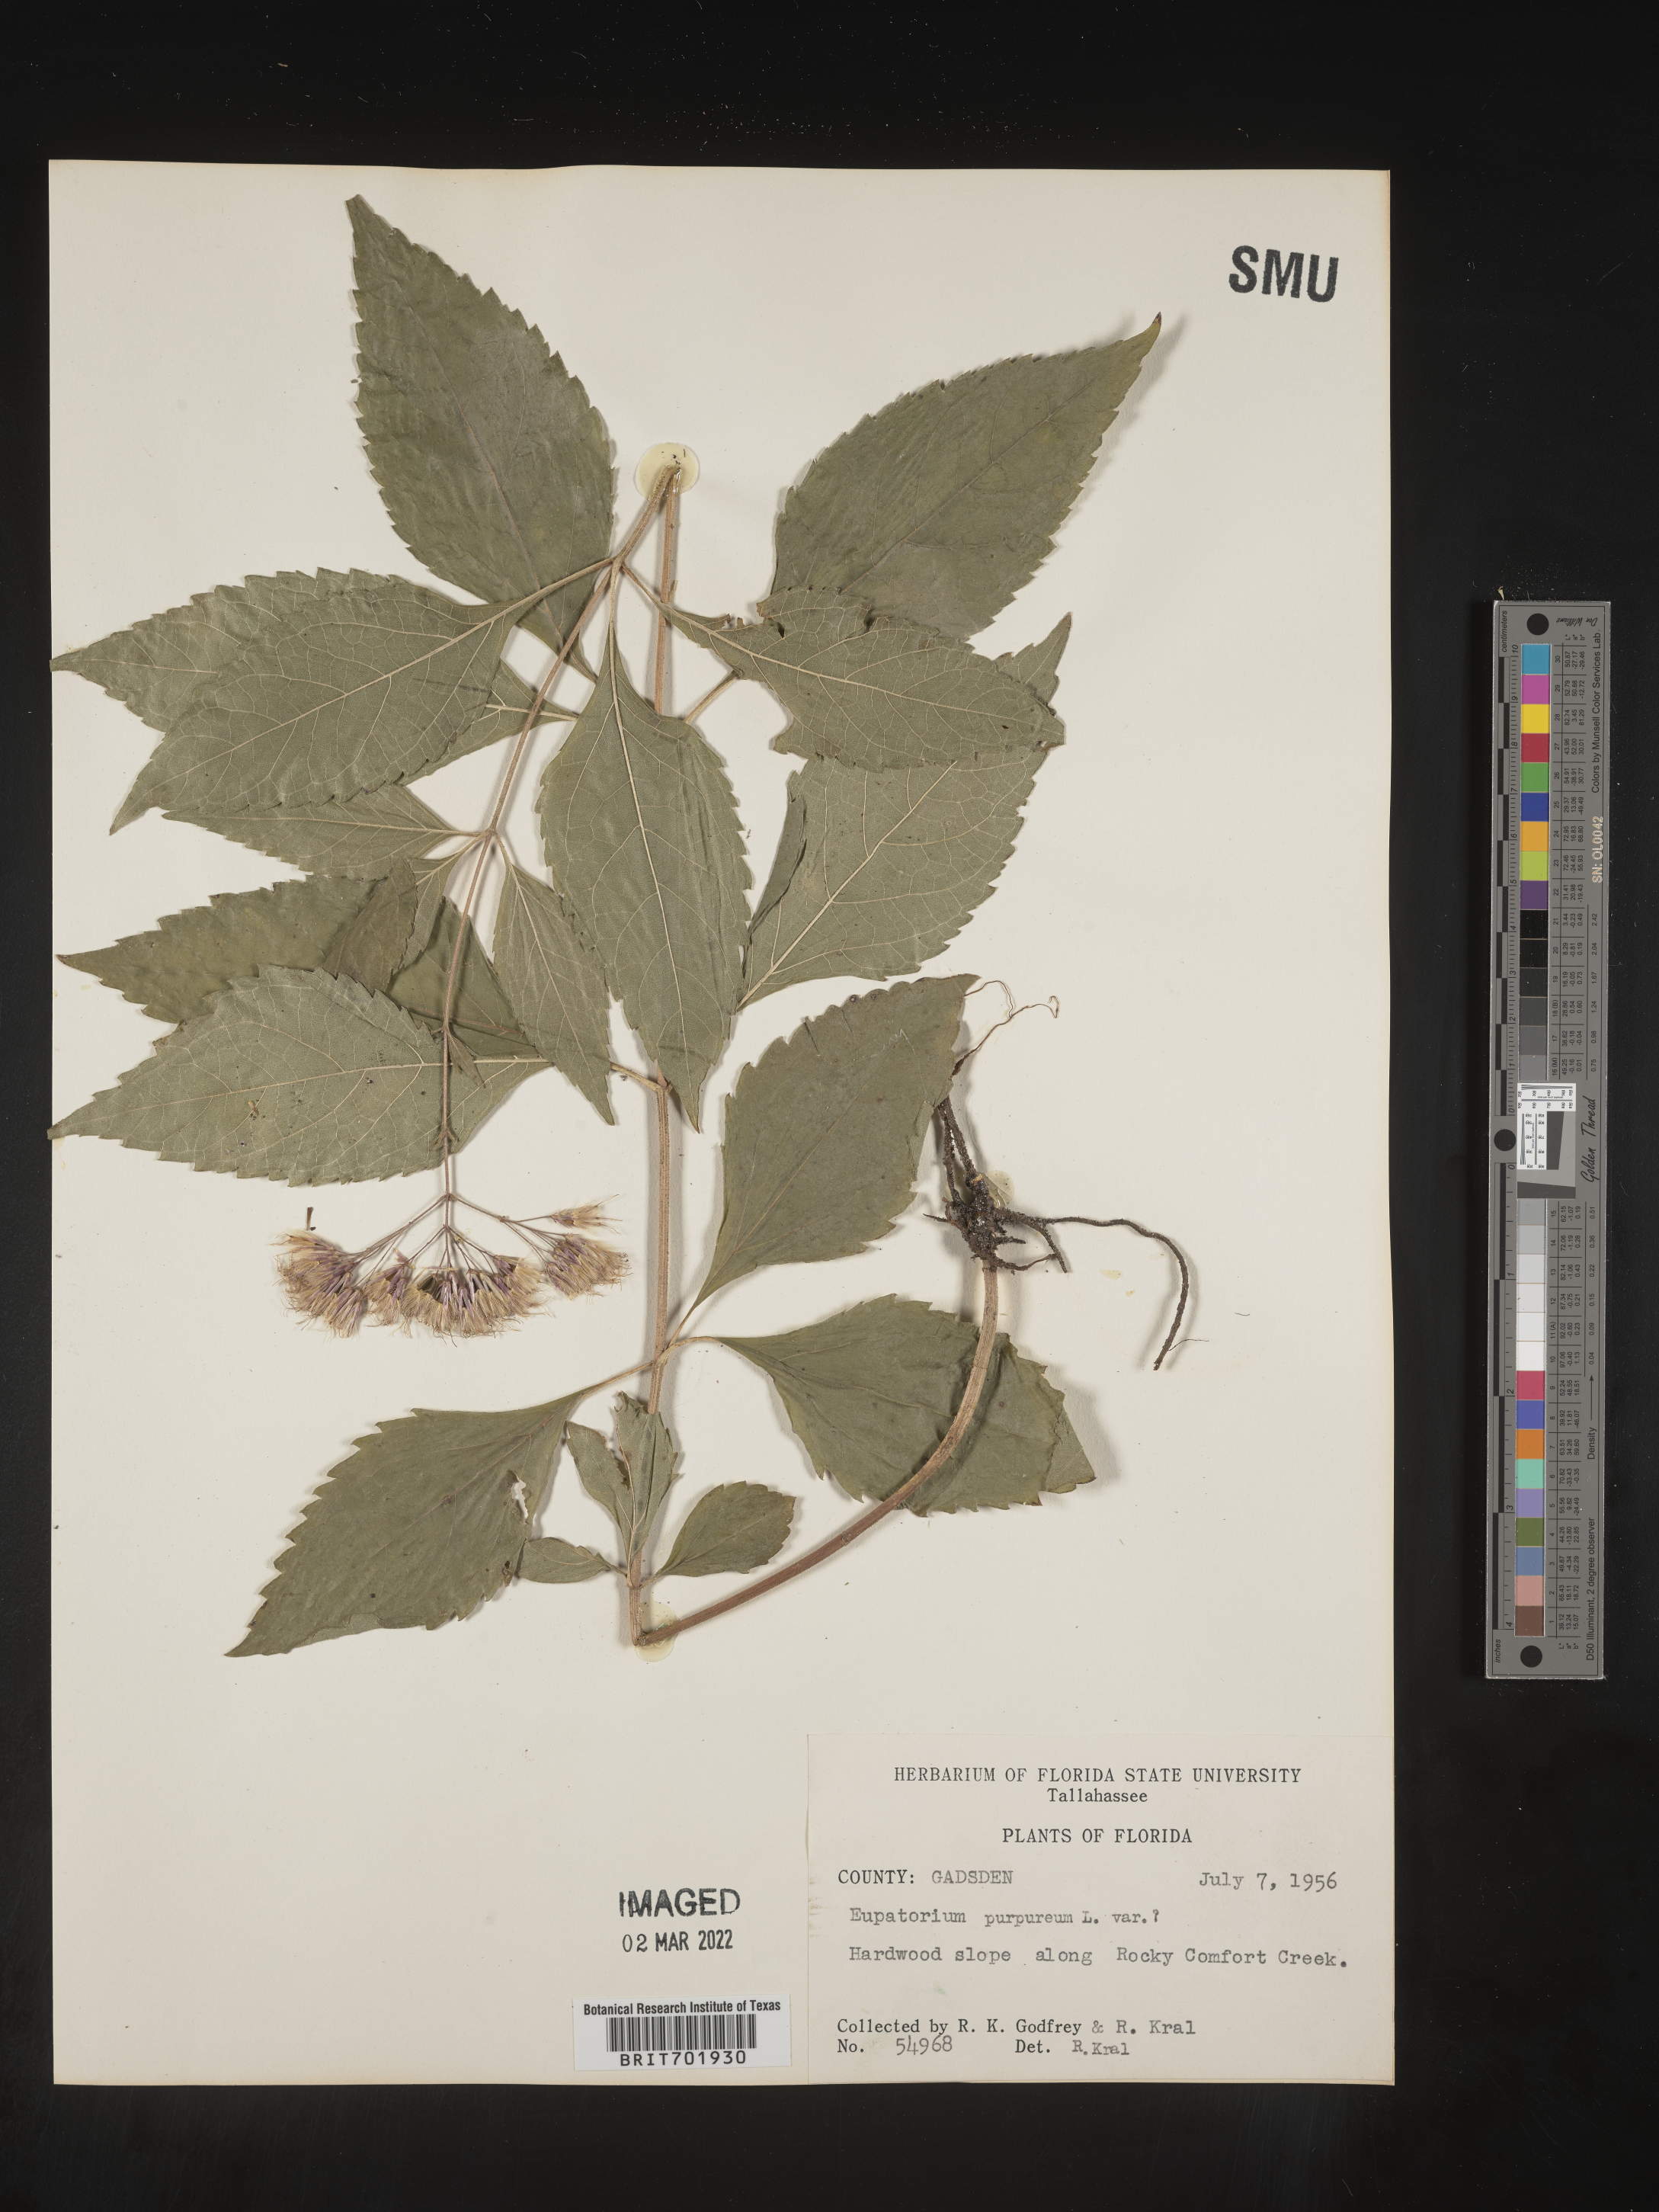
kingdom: Plantae
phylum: Tracheophyta
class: Magnoliopsida
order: Asterales
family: Asteraceae
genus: Eupatorium
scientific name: Eupatorium quaternum
